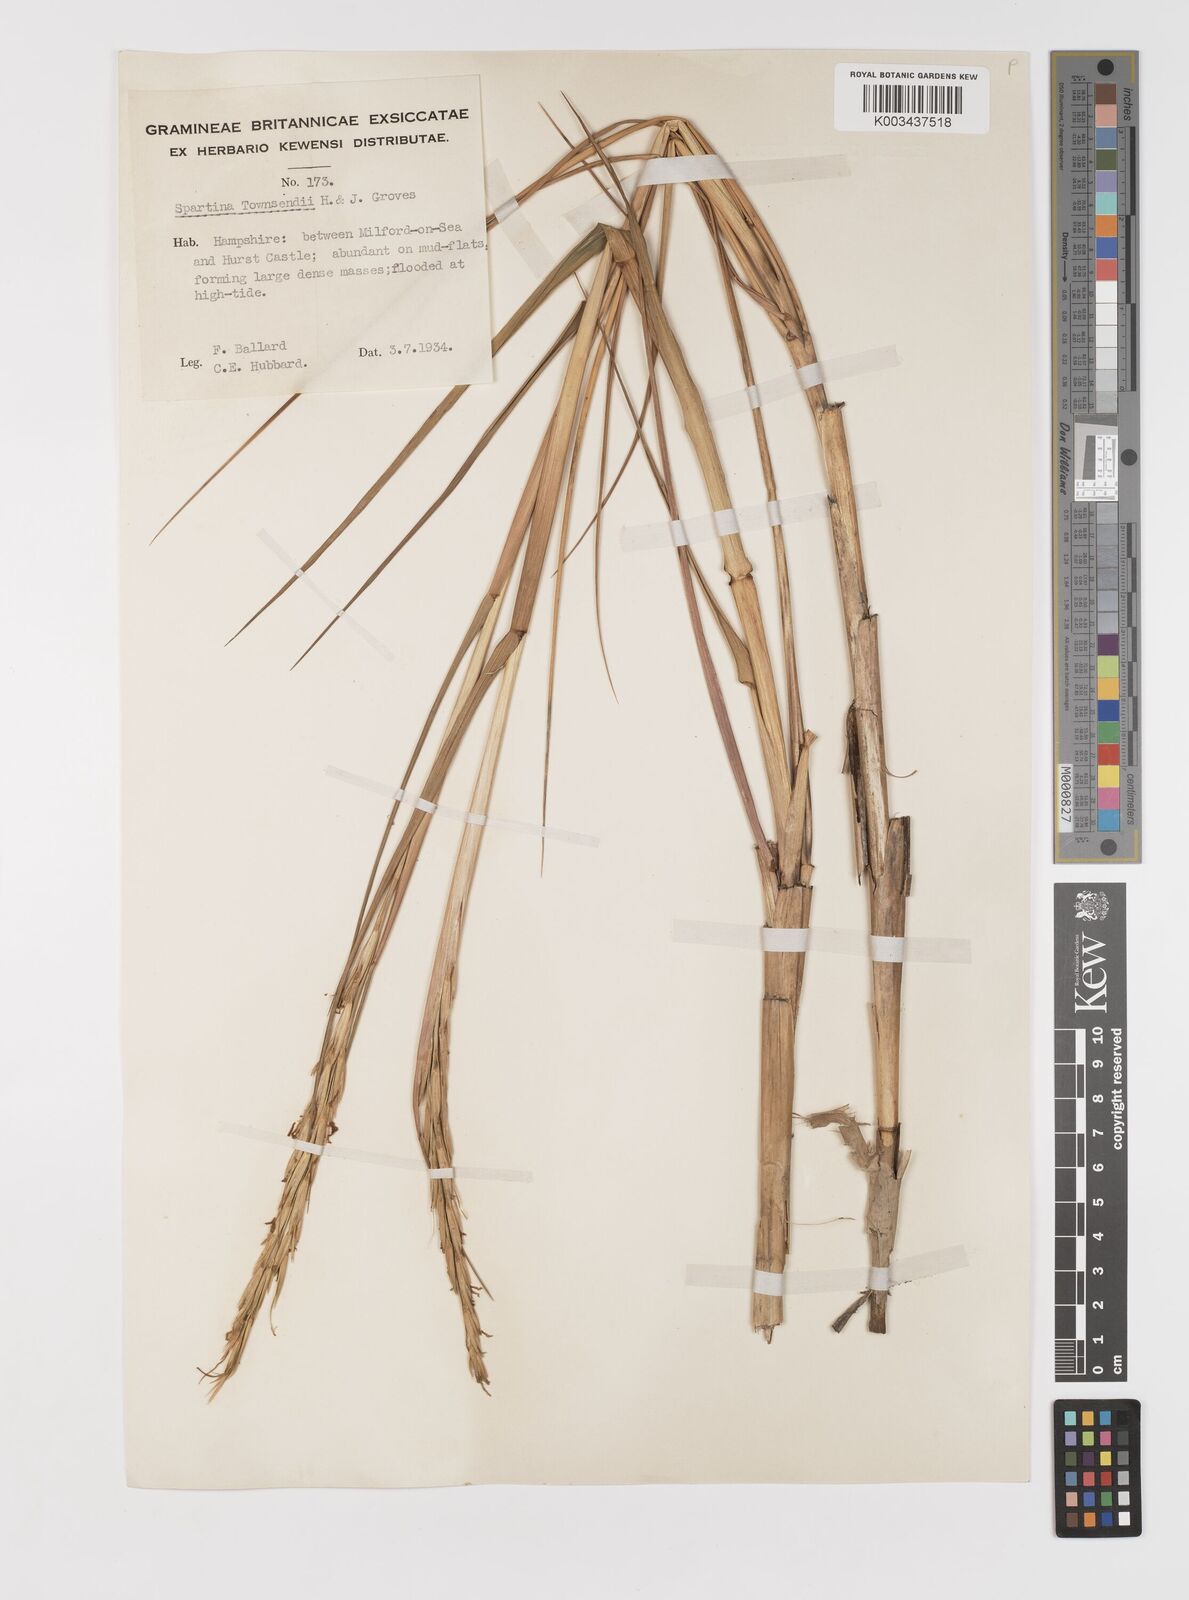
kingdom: Plantae
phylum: Tracheophyta
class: Liliopsida
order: Poales
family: Poaceae
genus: Sporobolus
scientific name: Sporobolus anglicus
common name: English cordgrass
